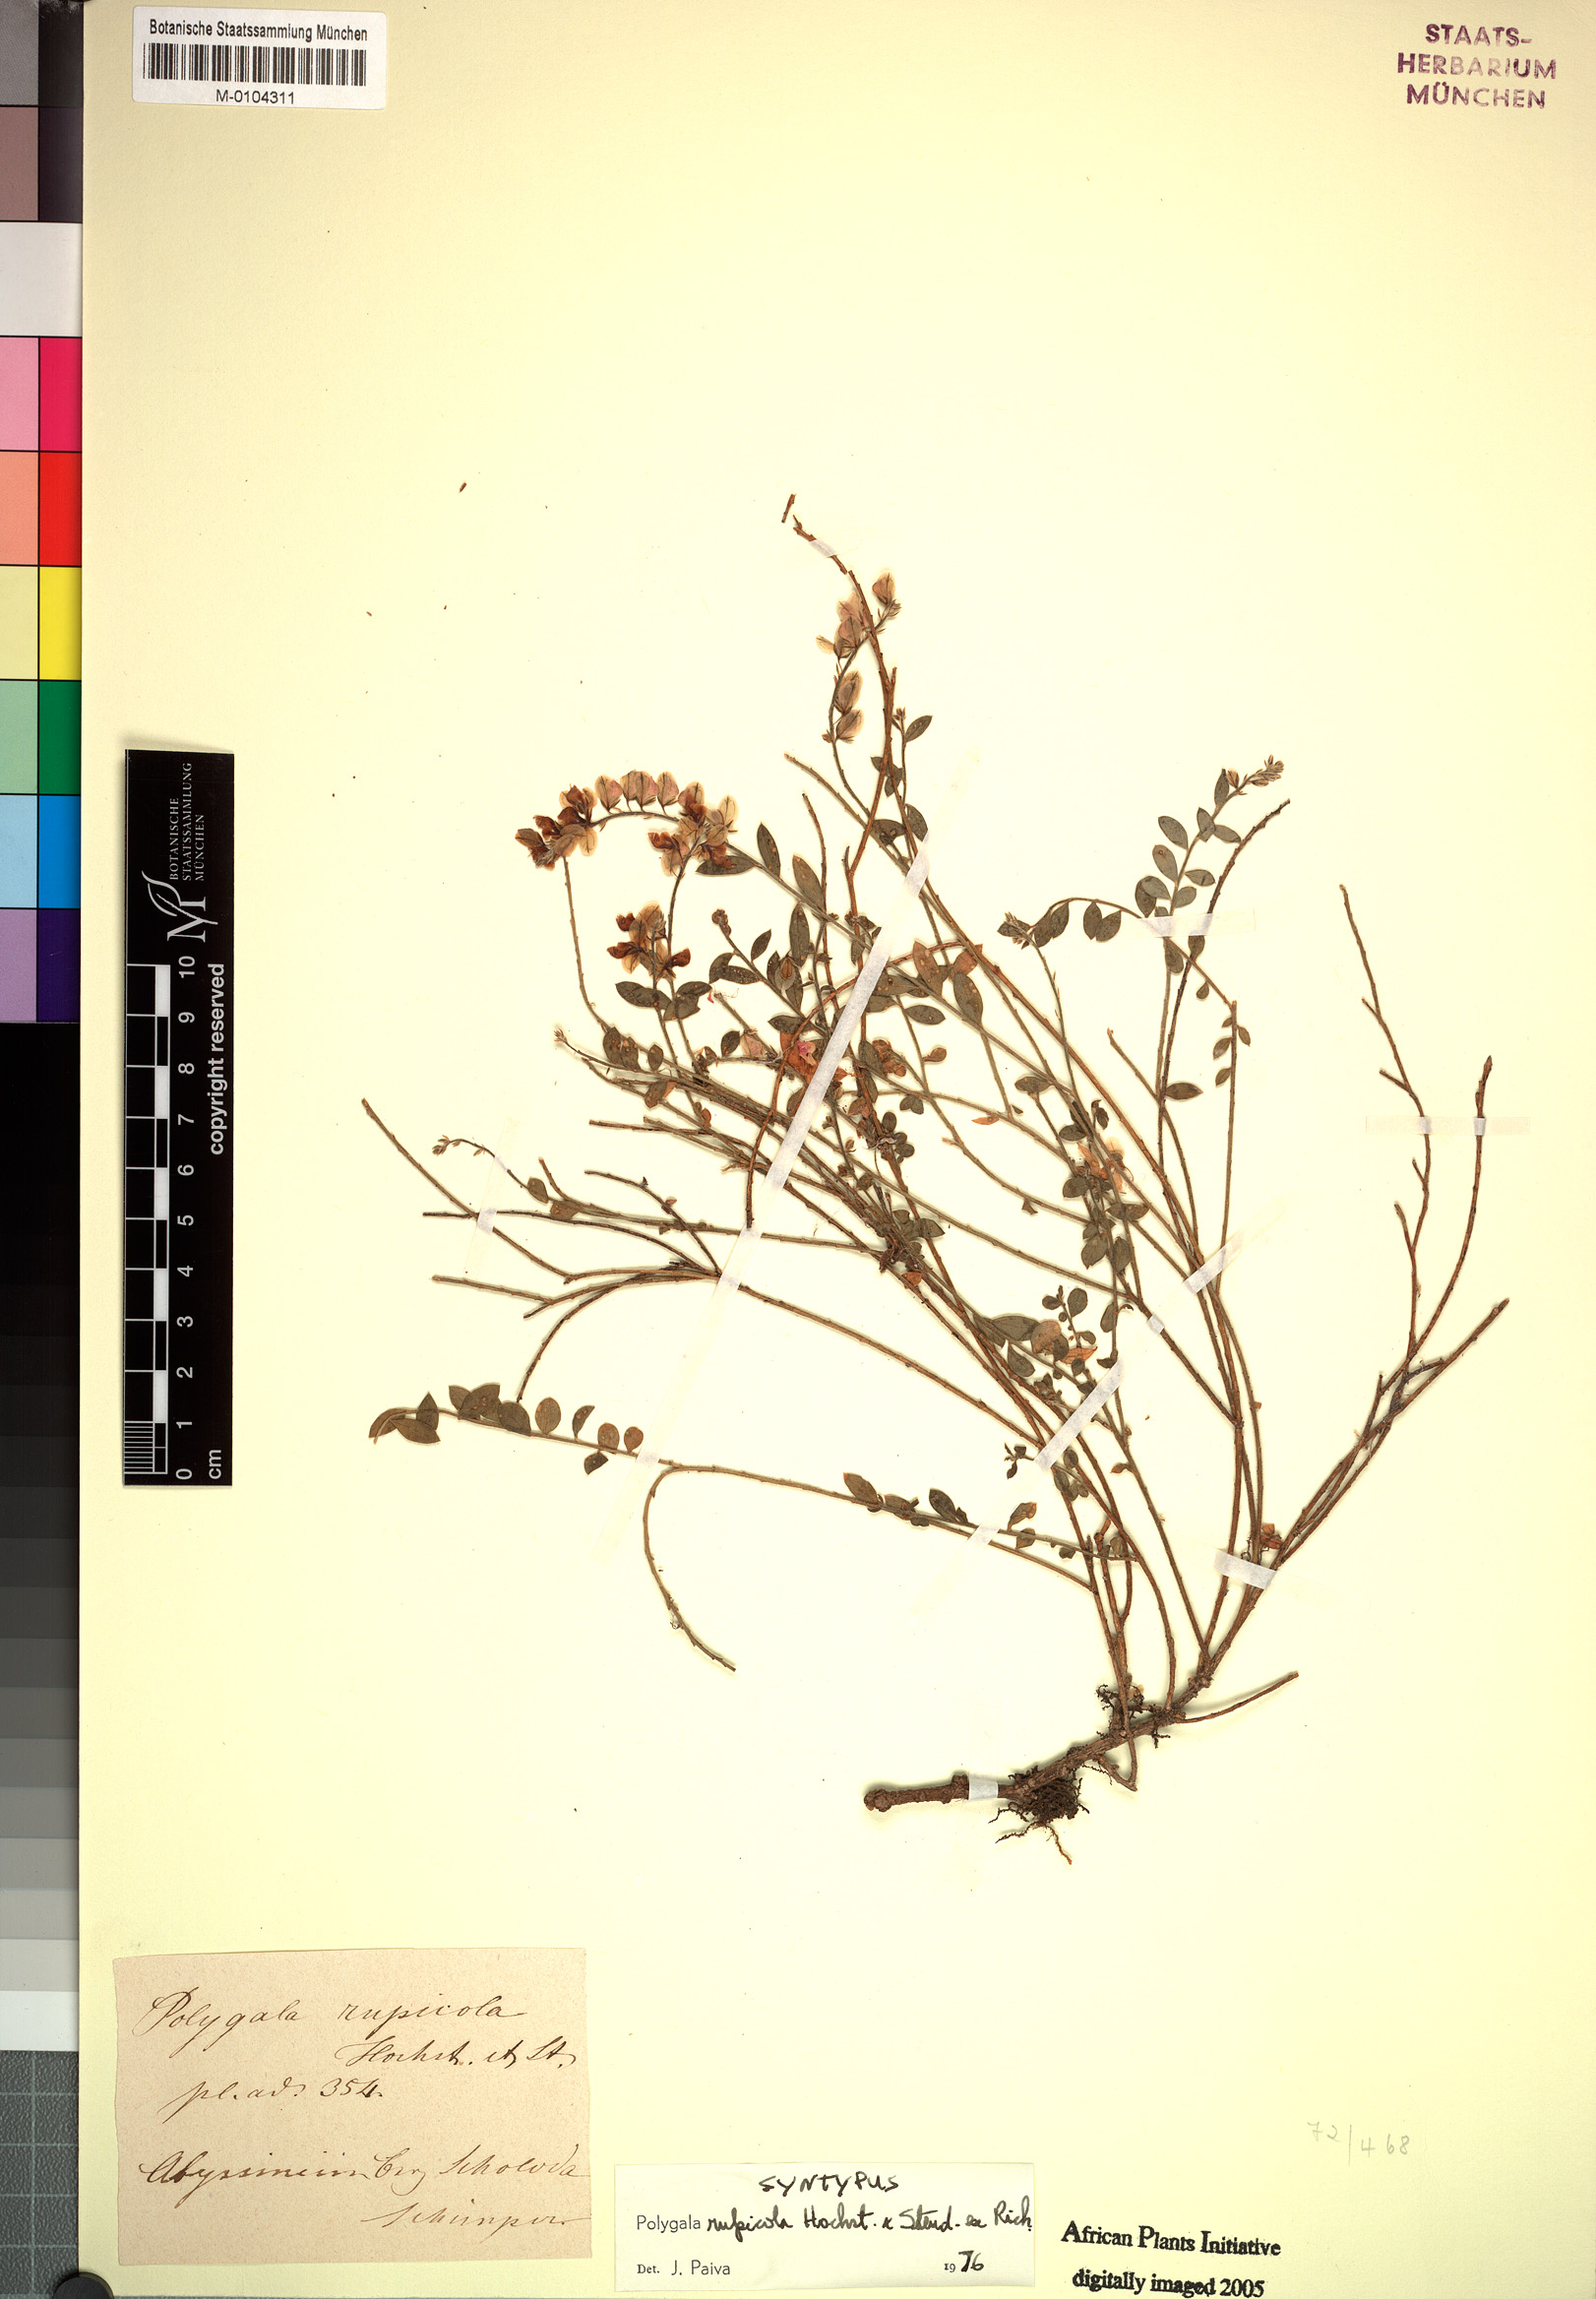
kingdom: Plantae
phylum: Tracheophyta
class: Magnoliopsida
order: Fabales
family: Polygalaceae
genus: Polygala
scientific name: Polygala rupicola
